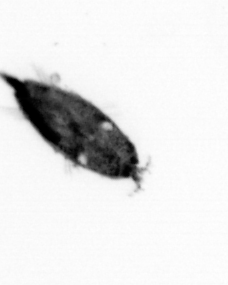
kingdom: Animalia
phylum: Arthropoda
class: Maxillopoda
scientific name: Maxillopoda
